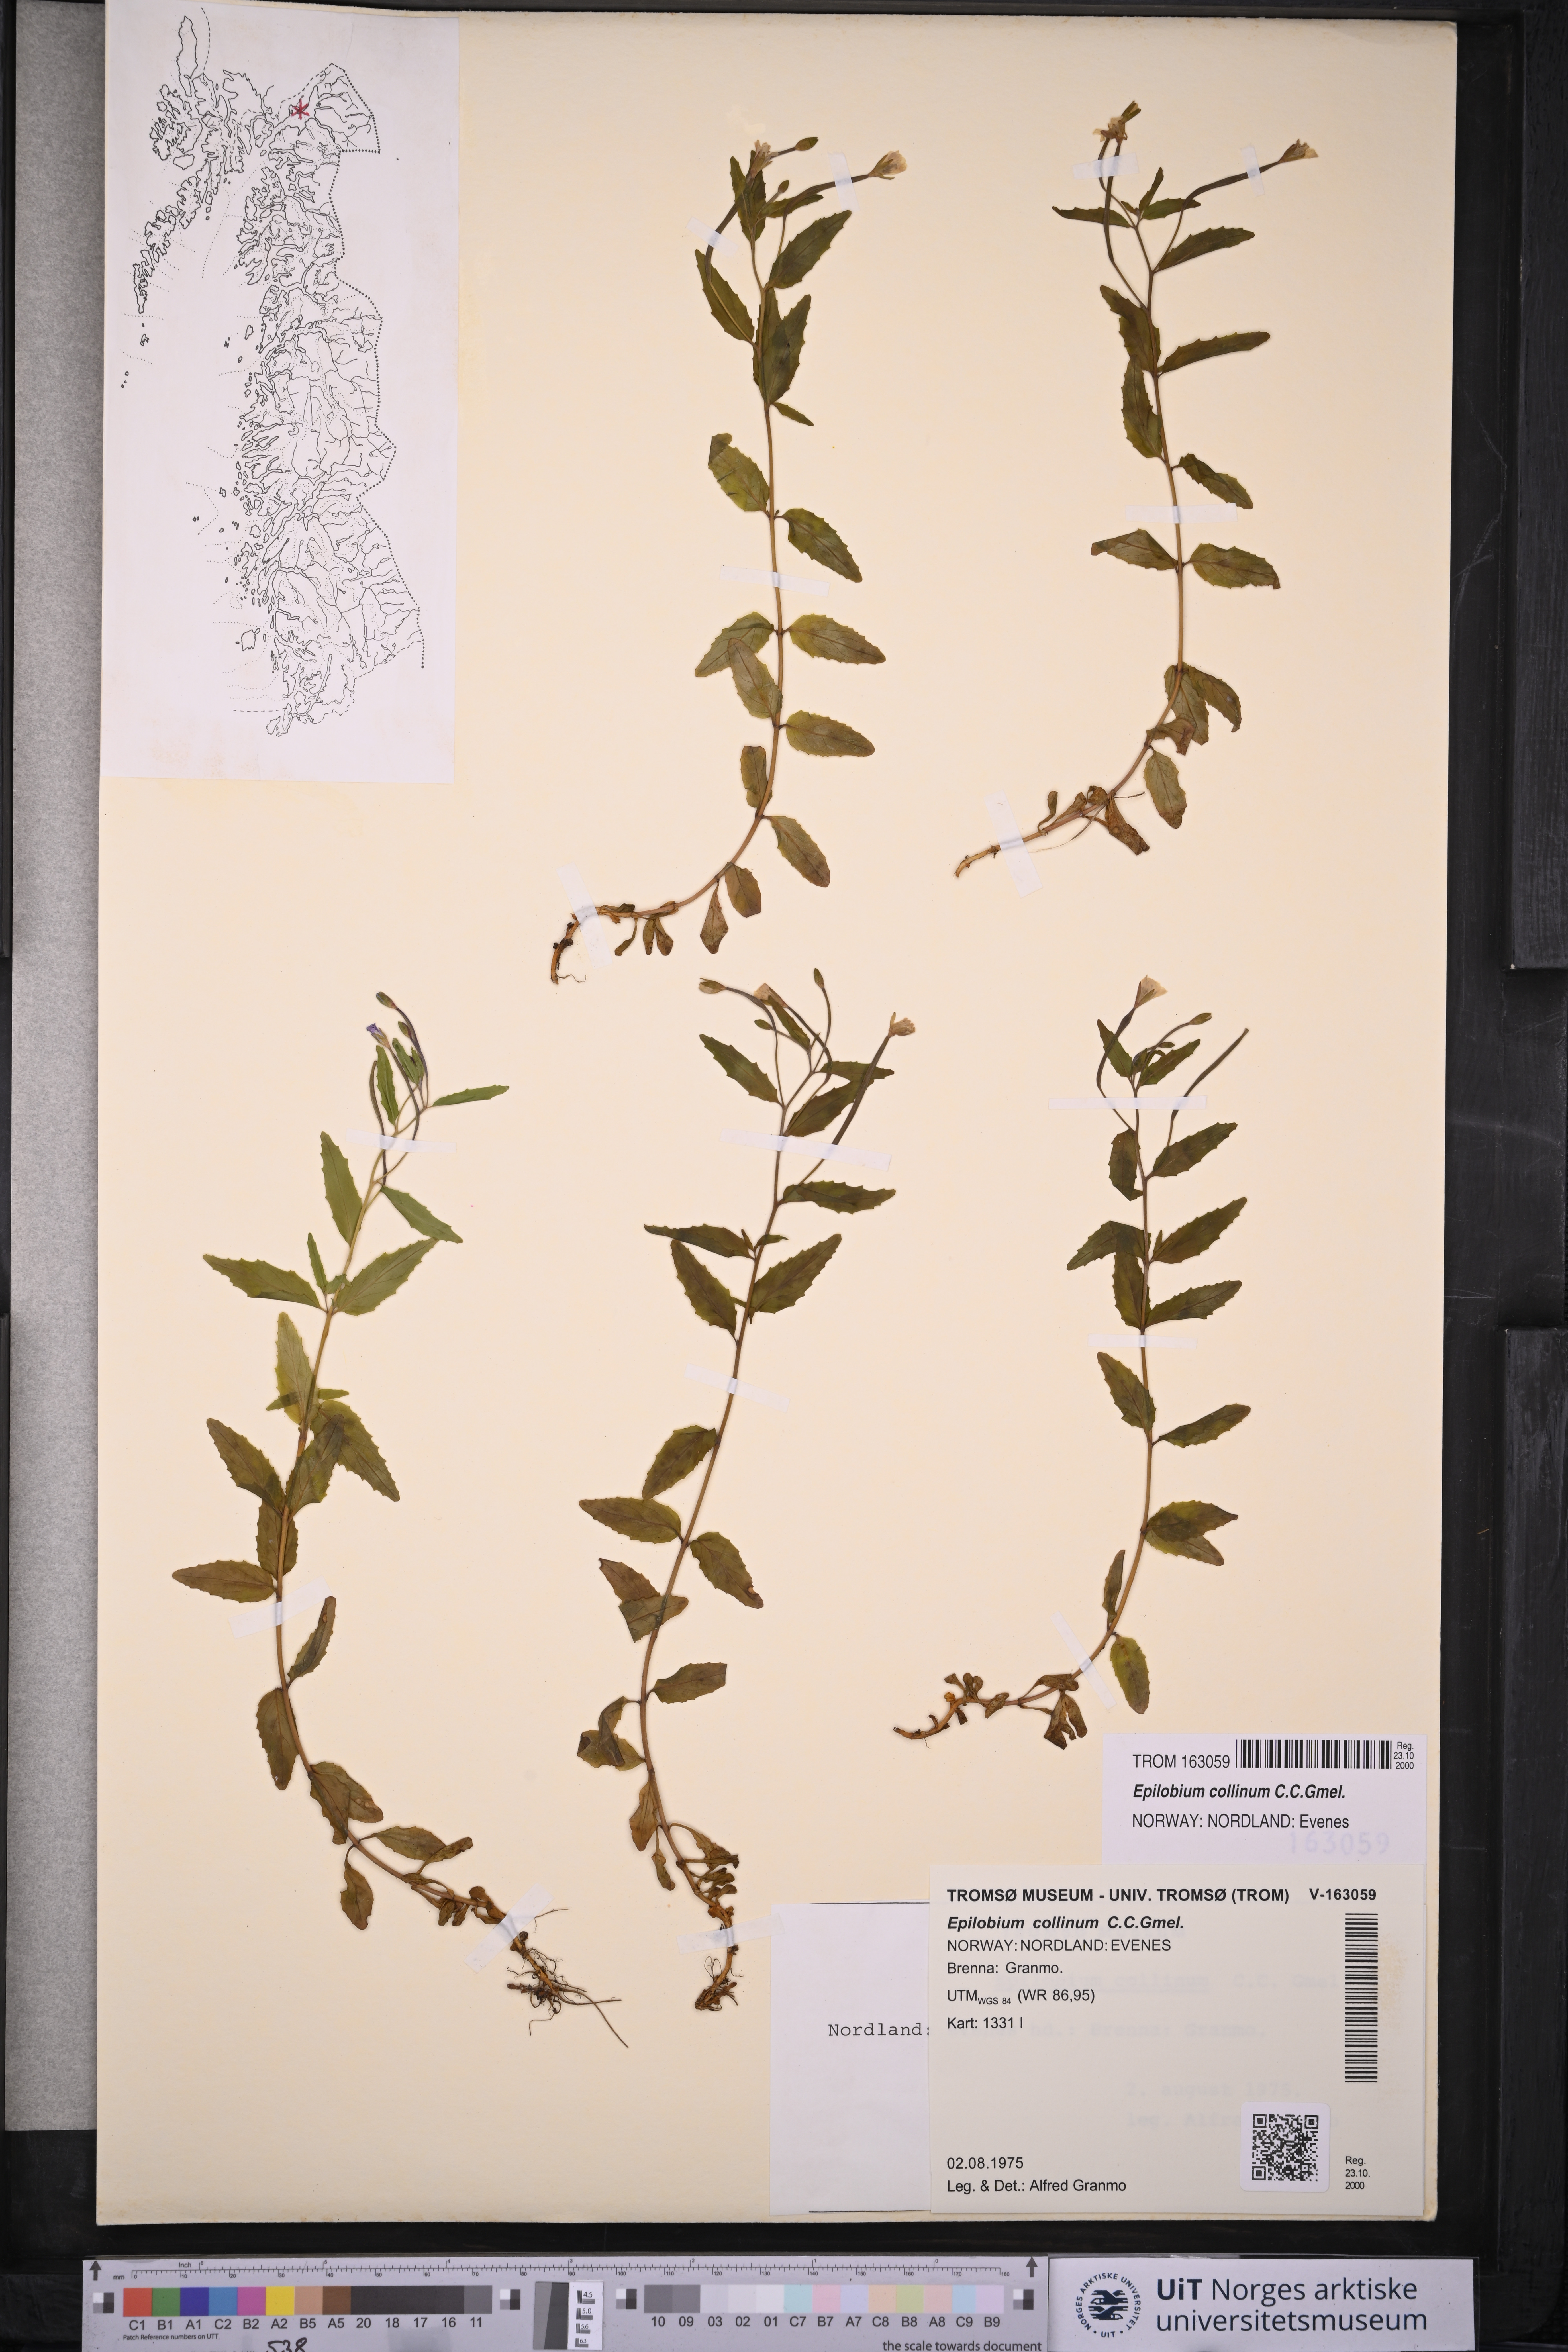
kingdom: Plantae
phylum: Tracheophyta
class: Magnoliopsida
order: Myrtales
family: Onagraceae
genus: Epilobium
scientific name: Epilobium collinum
